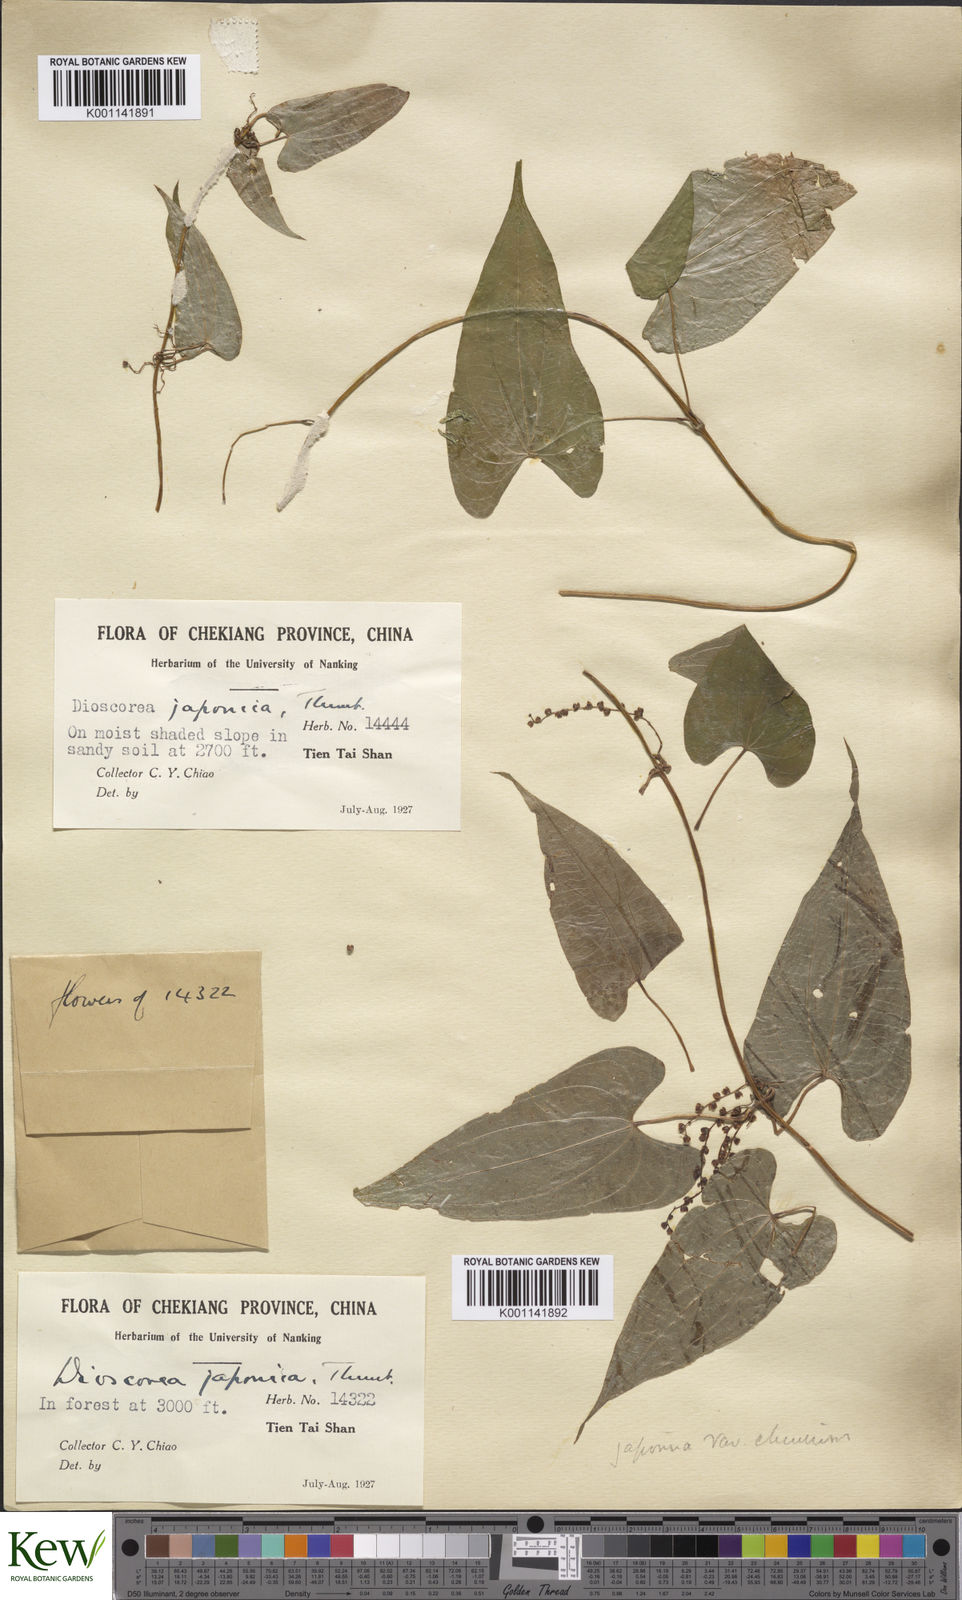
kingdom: Plantae
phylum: Tracheophyta
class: Liliopsida
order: Dioscoreales
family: Dioscoreaceae
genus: Dioscorea
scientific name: Dioscorea japonica
